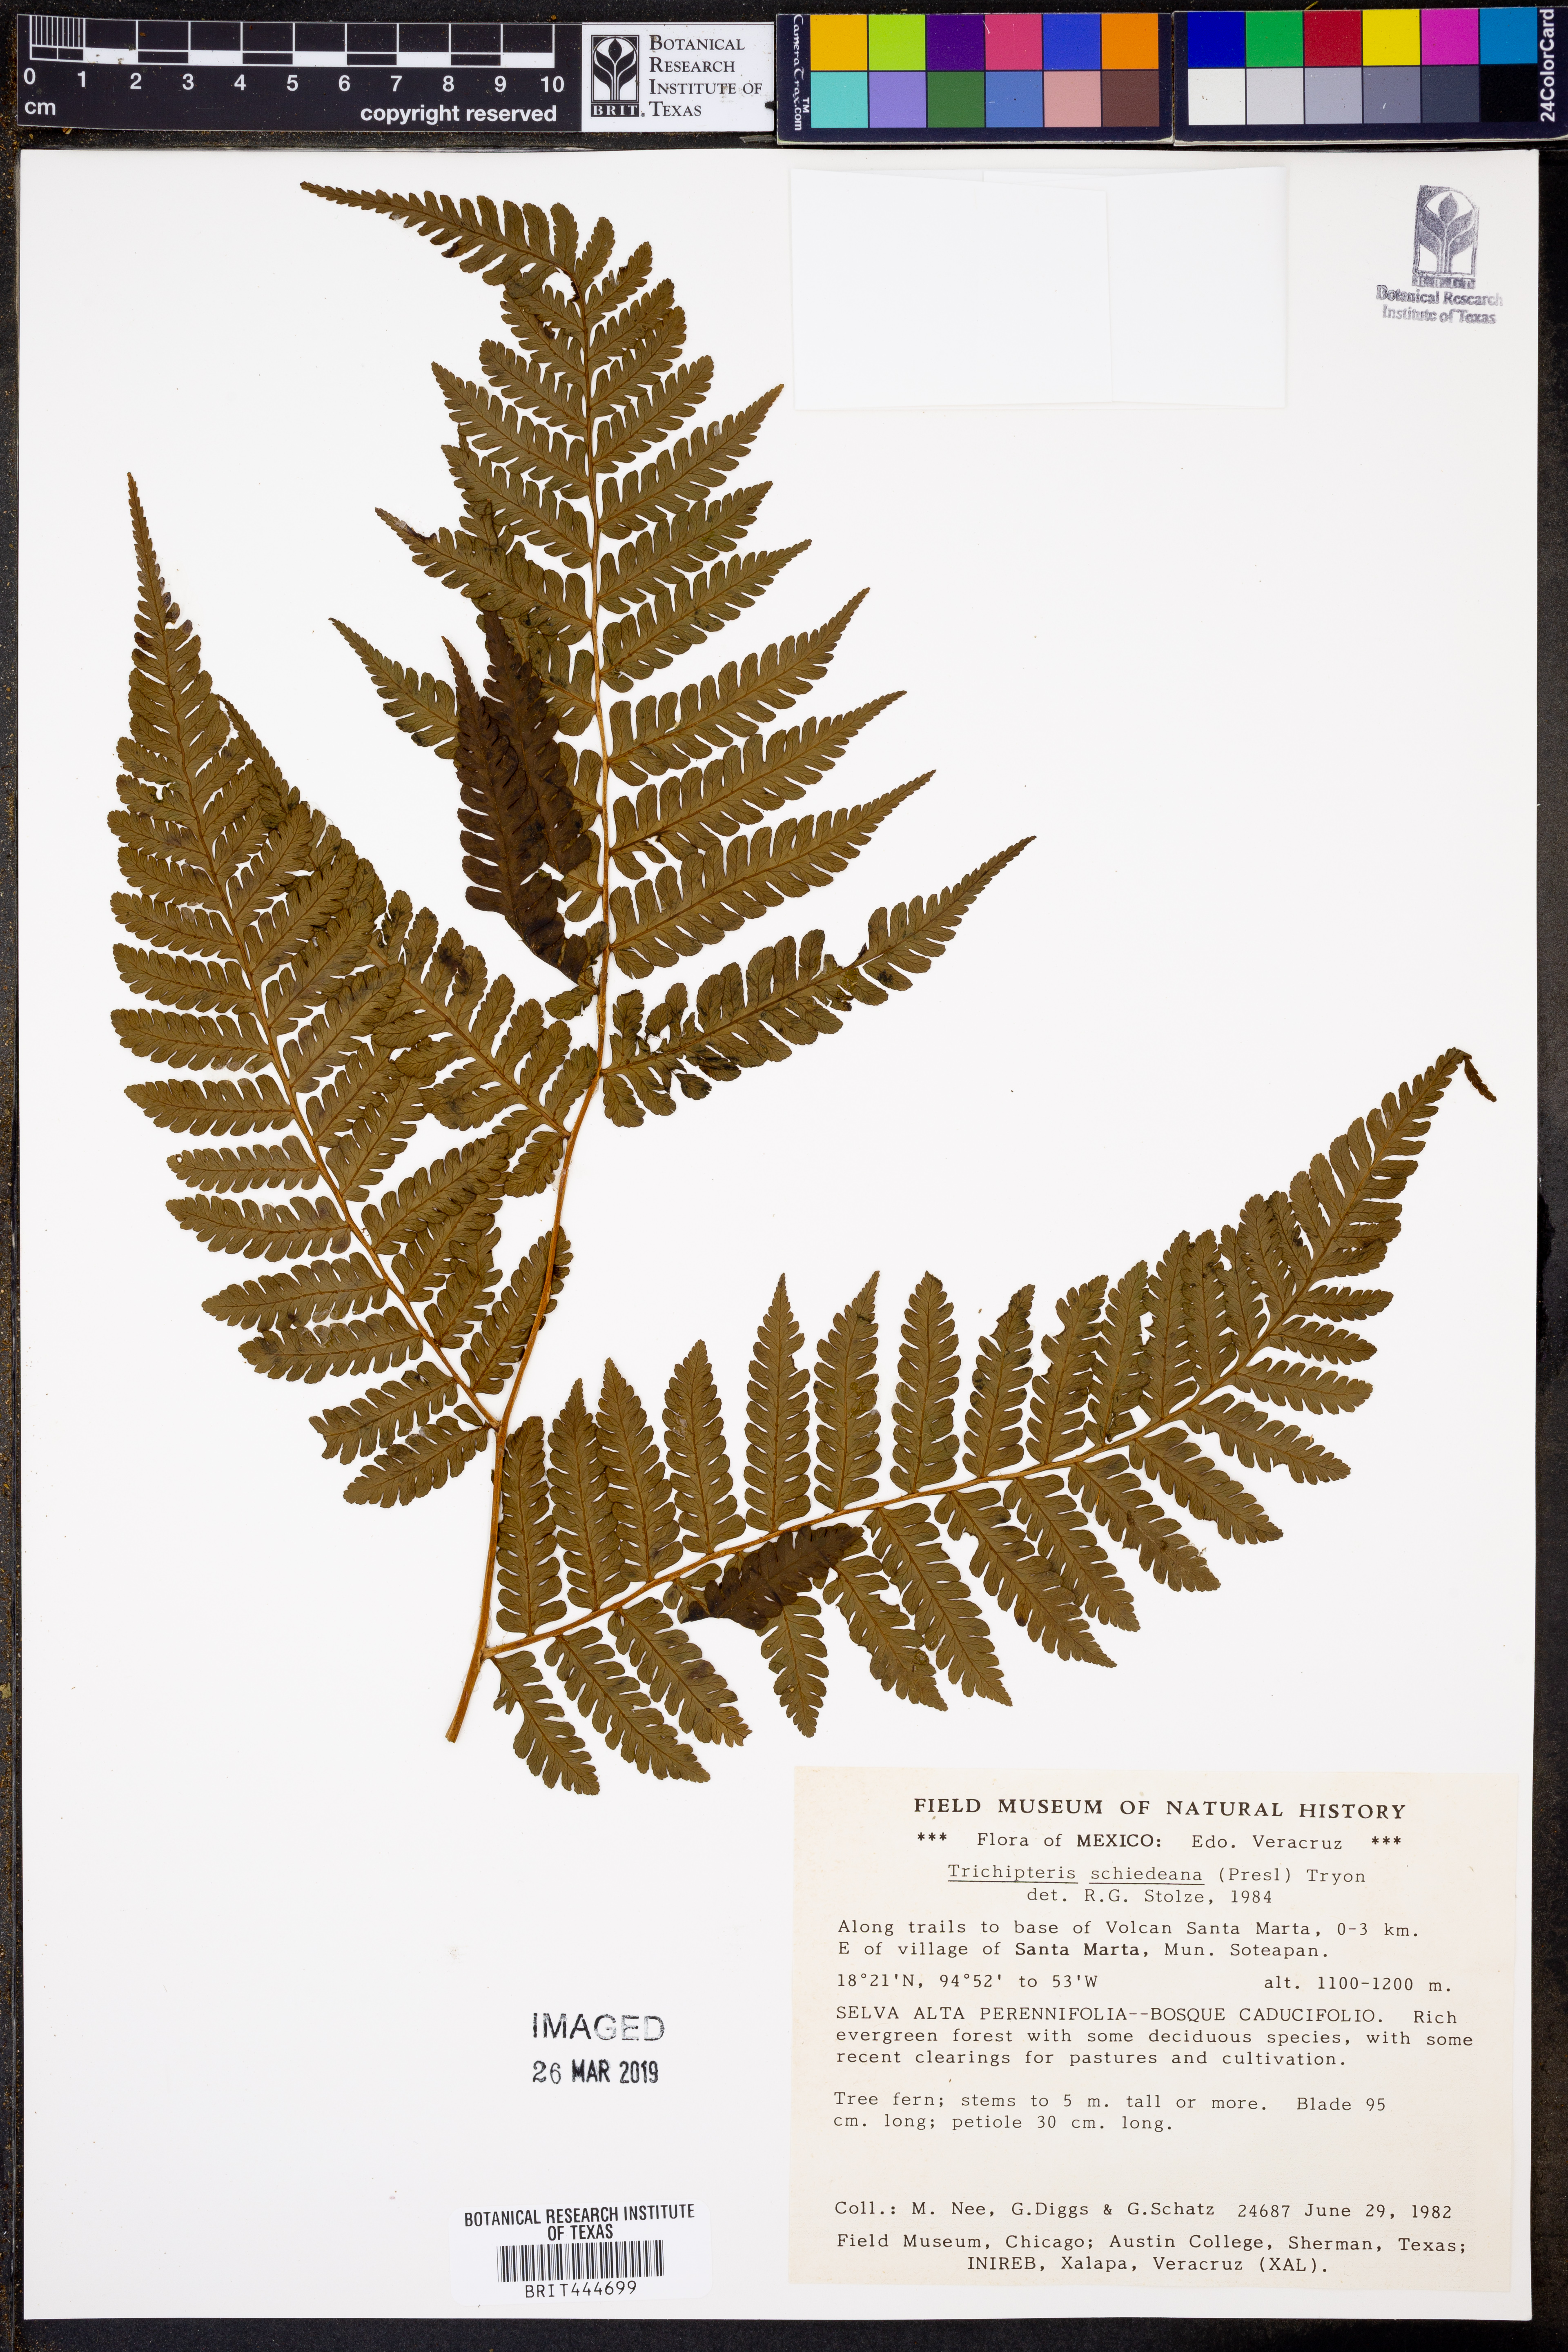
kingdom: Plantae
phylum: Tracheophyta
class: Polypodiopsida
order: Cyatheales
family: Cyatheaceae
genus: Cyathea
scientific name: Cyathea schiedeana
